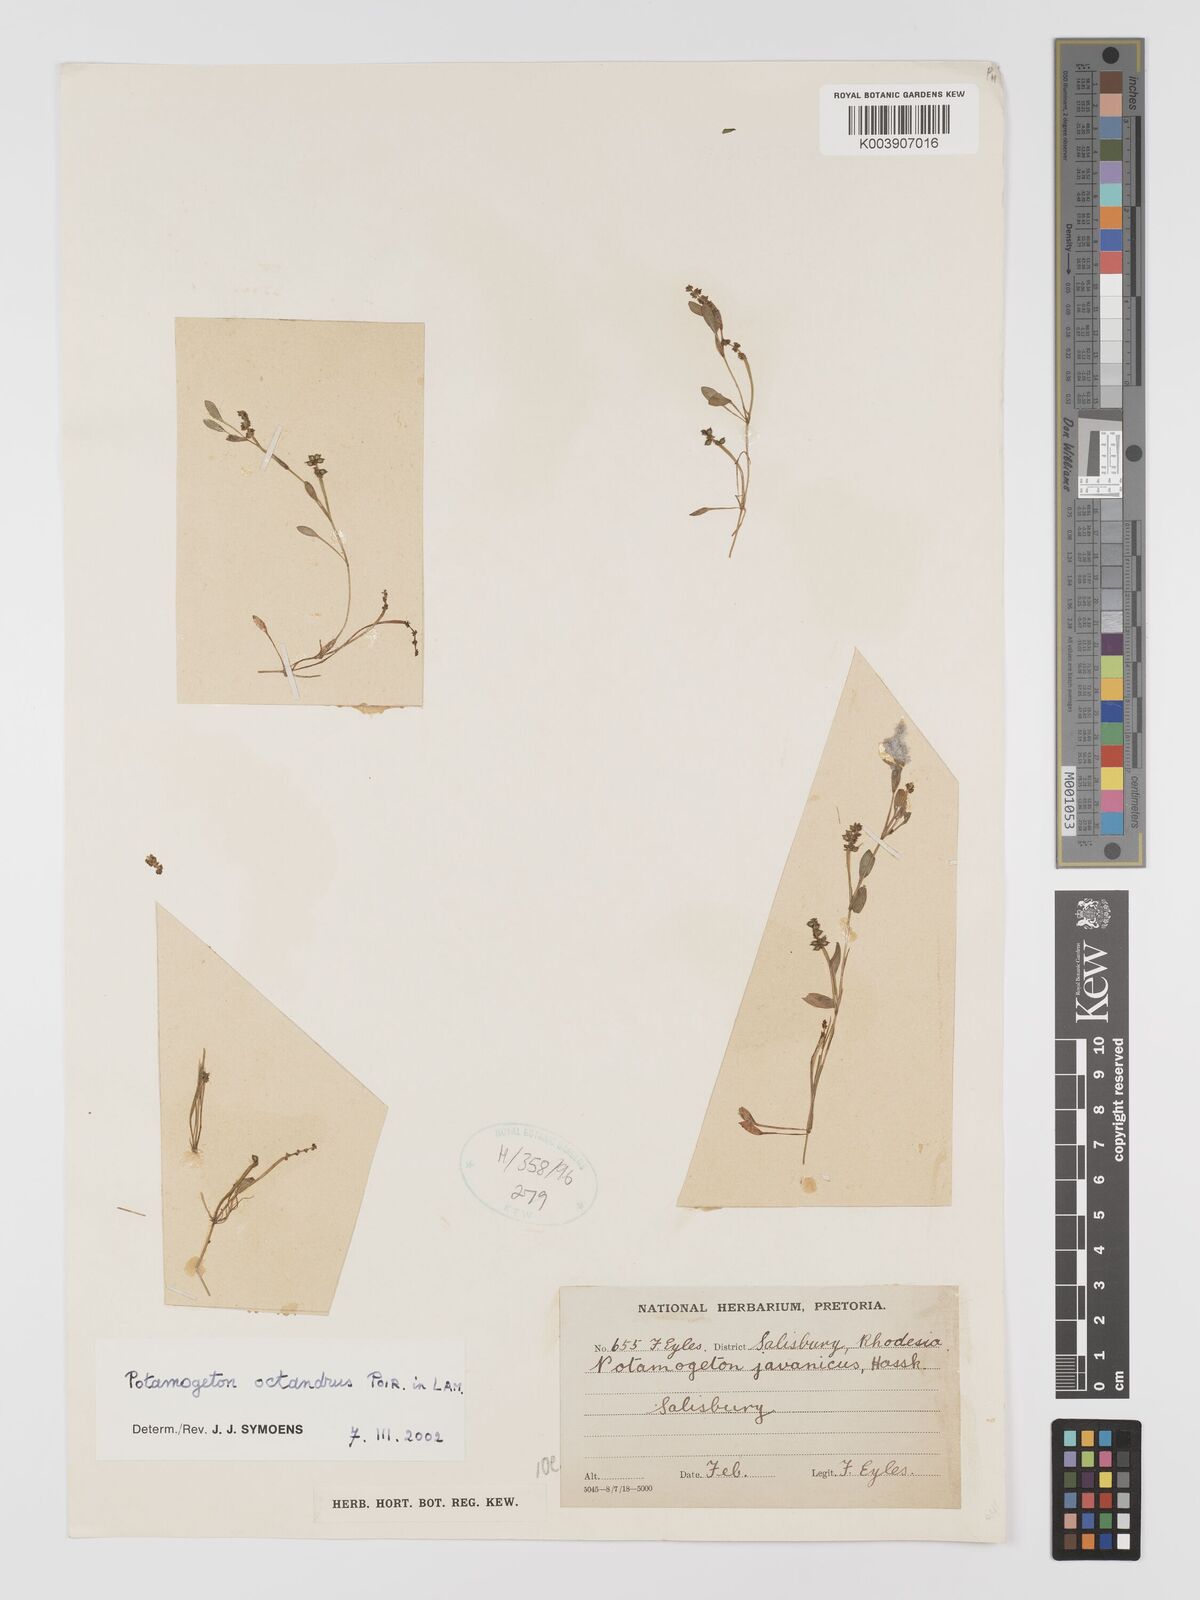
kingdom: Plantae
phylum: Tracheophyta
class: Liliopsida
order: Alismatales
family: Potamogetonaceae
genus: Potamogeton
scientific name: Potamogeton octandrus
